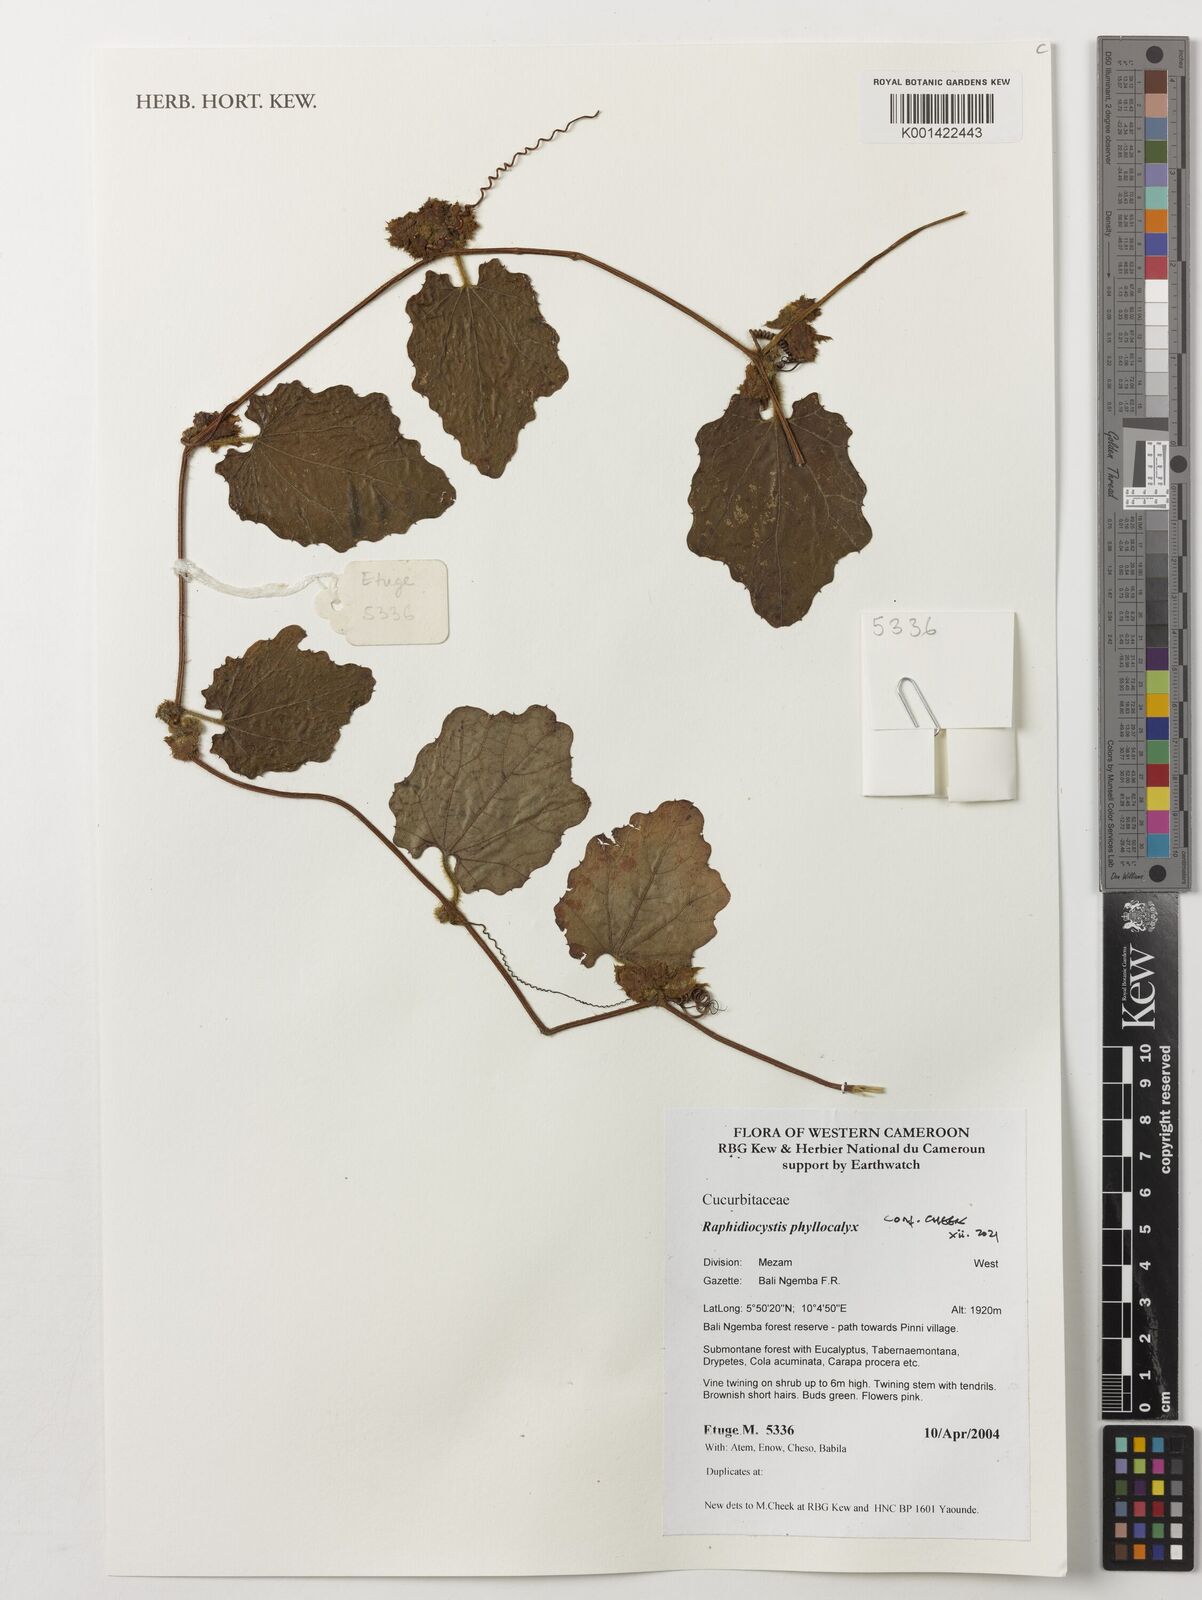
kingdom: Plantae
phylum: Tracheophyta
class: Magnoliopsida
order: Cucurbitales
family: Cucurbitaceae
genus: Raphidiocystis
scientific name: Raphidiocystis phyllocalyx
